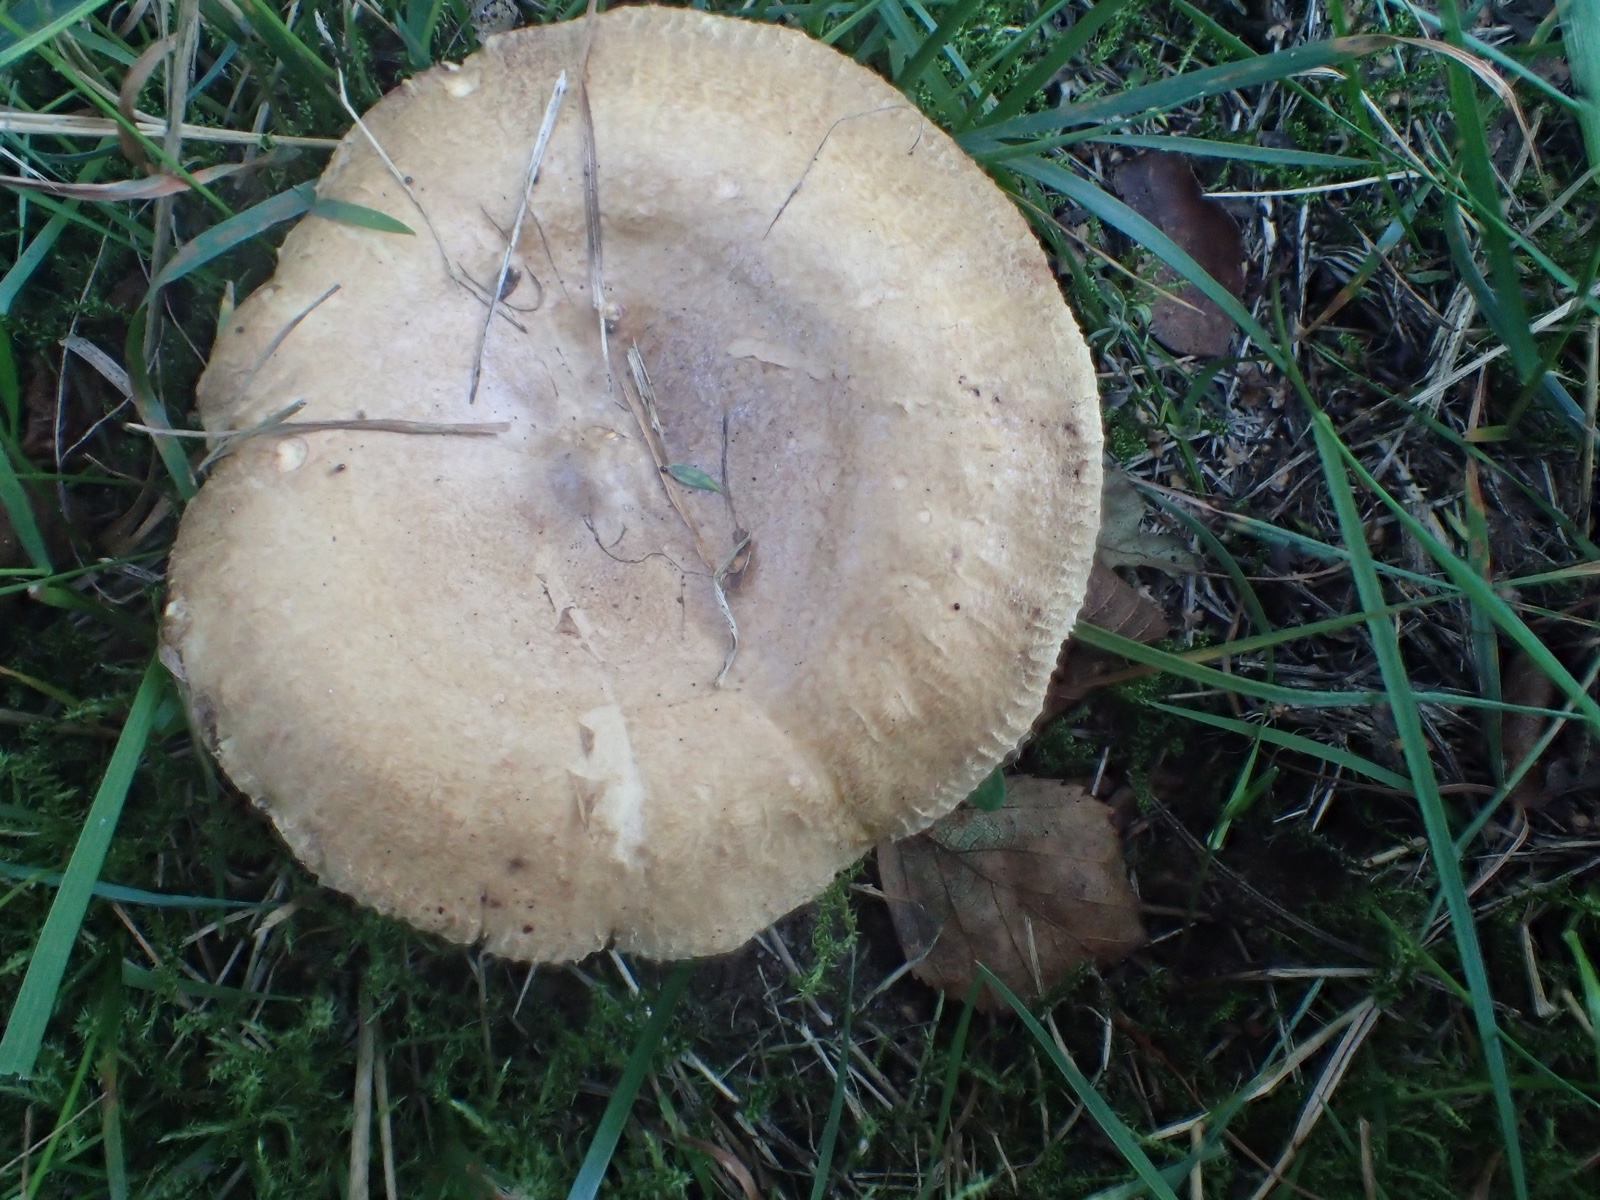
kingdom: Fungi
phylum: Basidiomycota
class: Agaricomycetes
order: Boletales
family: Paxillaceae
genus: Paxillus
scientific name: Paxillus involutus
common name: almindelig netbladhat
